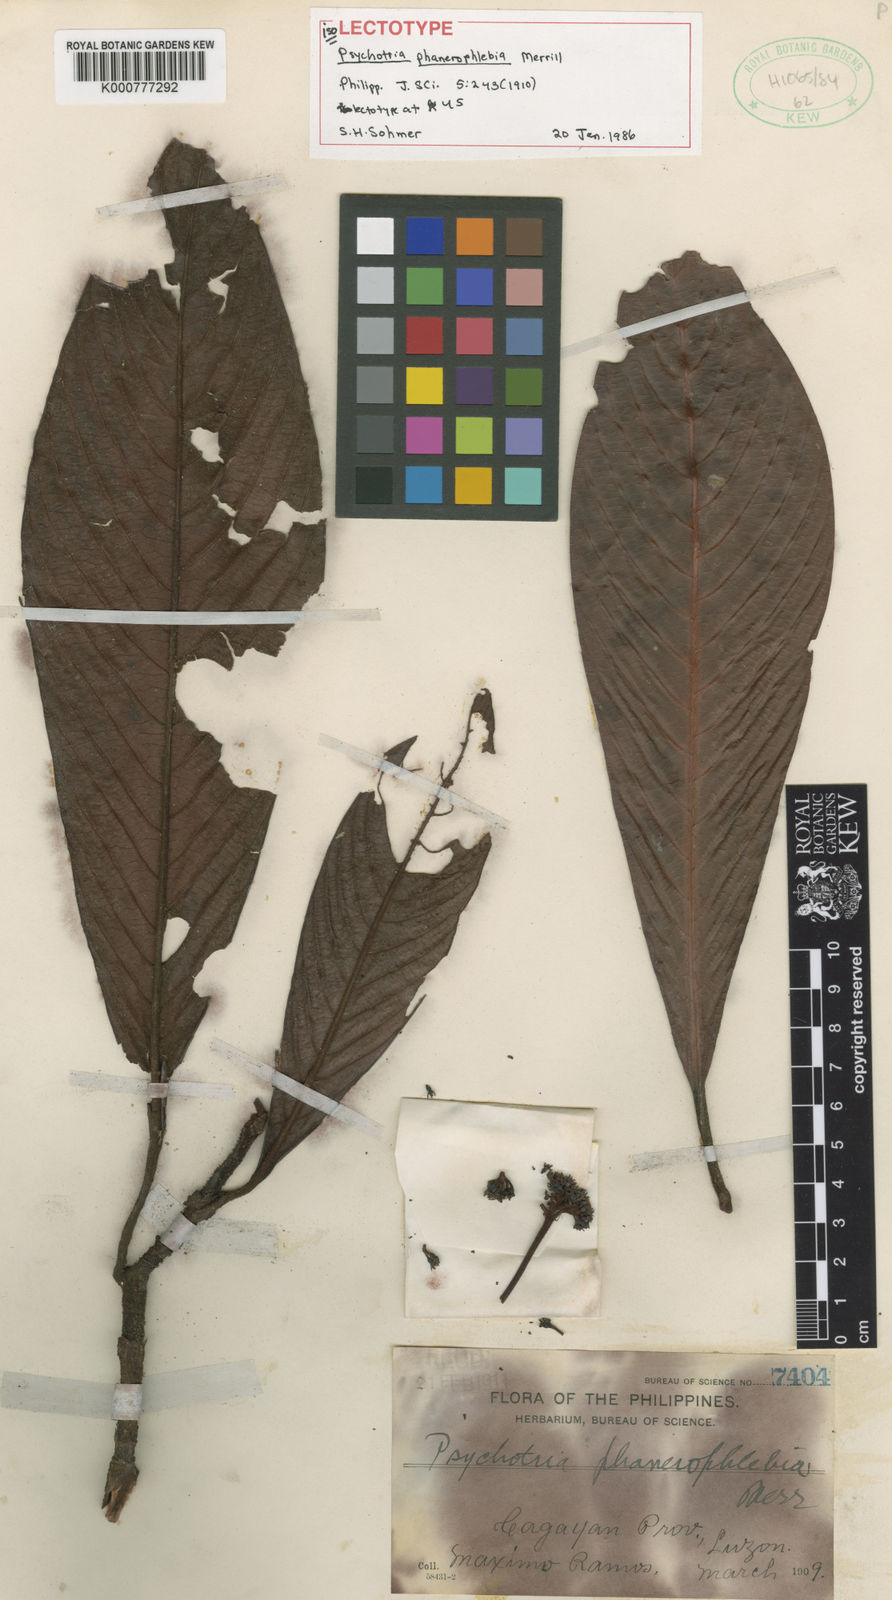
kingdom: Plantae
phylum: Tracheophyta
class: Magnoliopsida
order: Gentianales
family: Rubiaceae
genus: Psychotria
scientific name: Psychotria phanerophlebia
